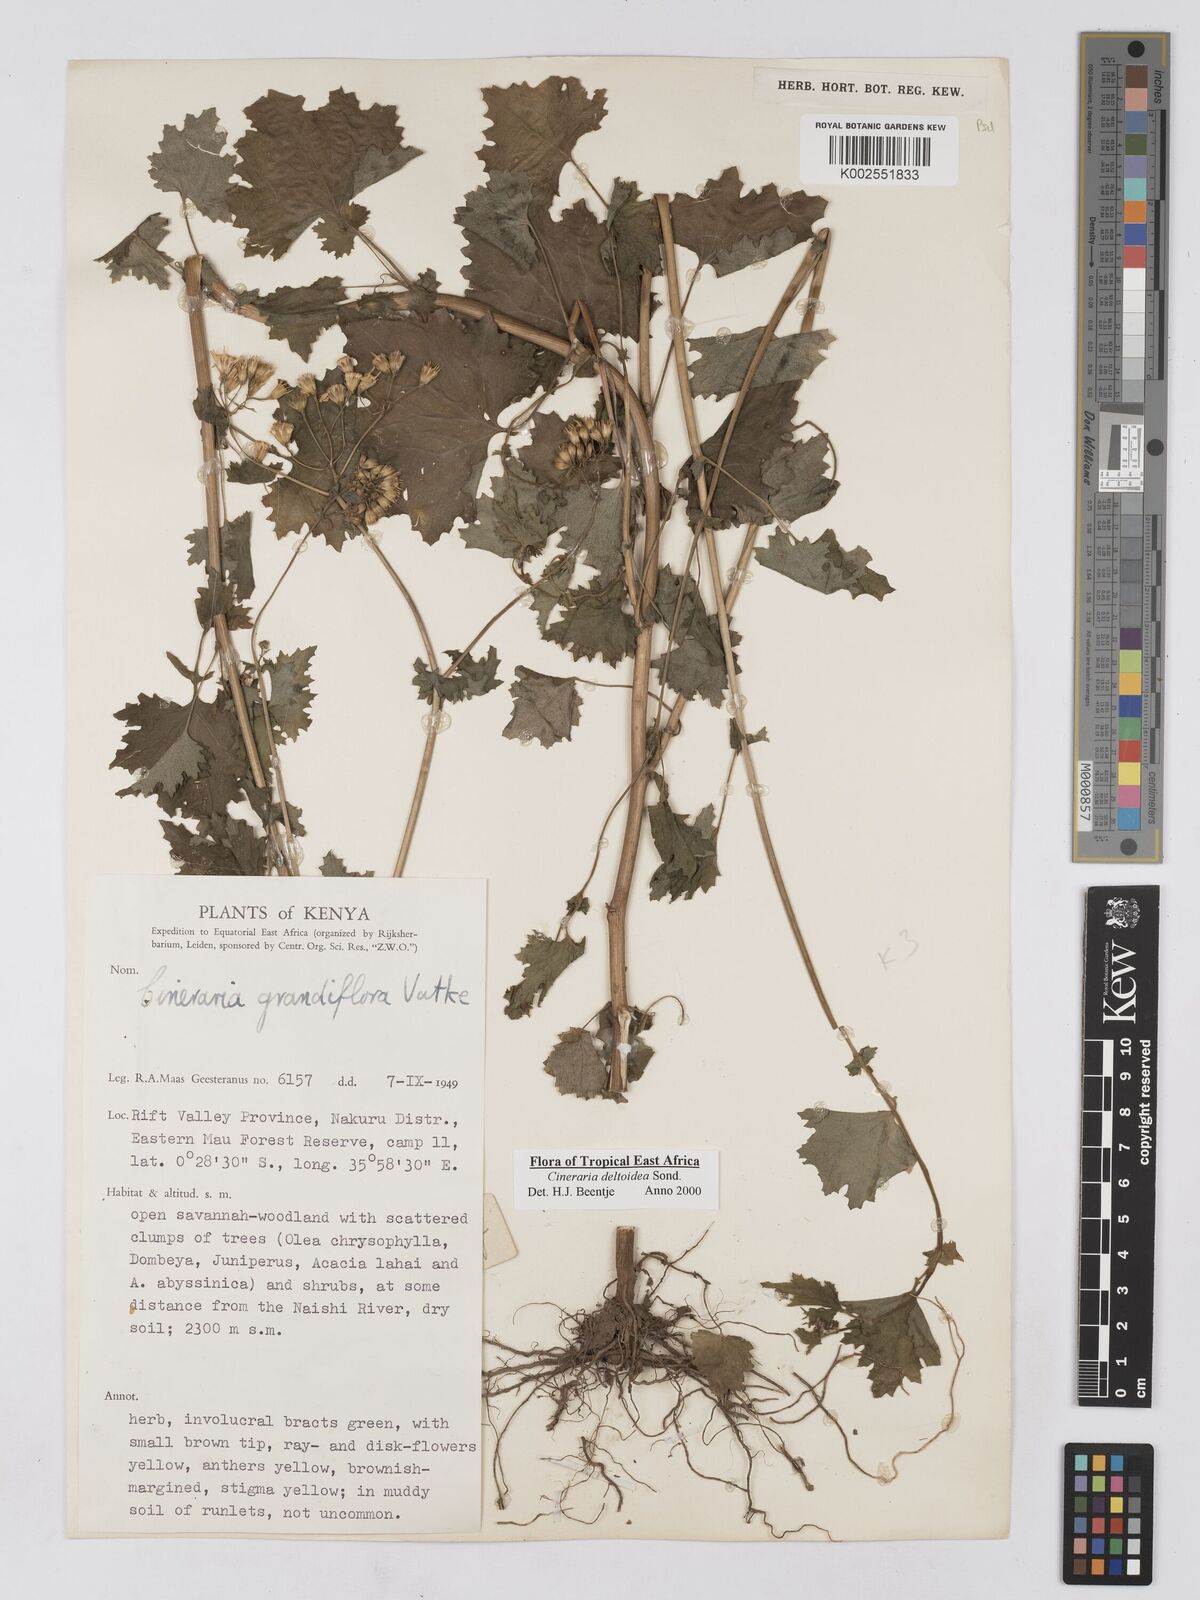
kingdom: Plantae
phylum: Tracheophyta
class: Magnoliopsida
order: Asterales
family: Asteraceae
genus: Cineraria
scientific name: Cineraria deltoidea
